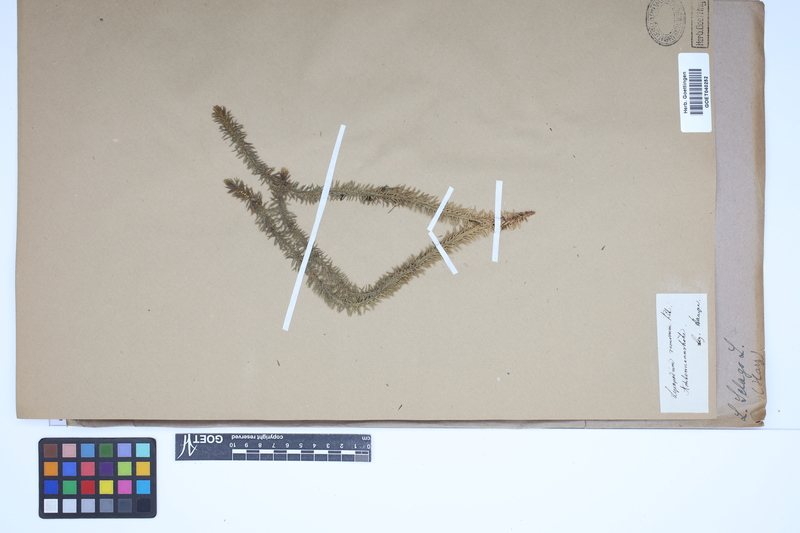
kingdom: Plantae
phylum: Tracheophyta
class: Lycopodiopsida
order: Lycopodiales
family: Lycopodiaceae
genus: Huperzia
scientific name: Huperzia selago
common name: Northern firmoss
